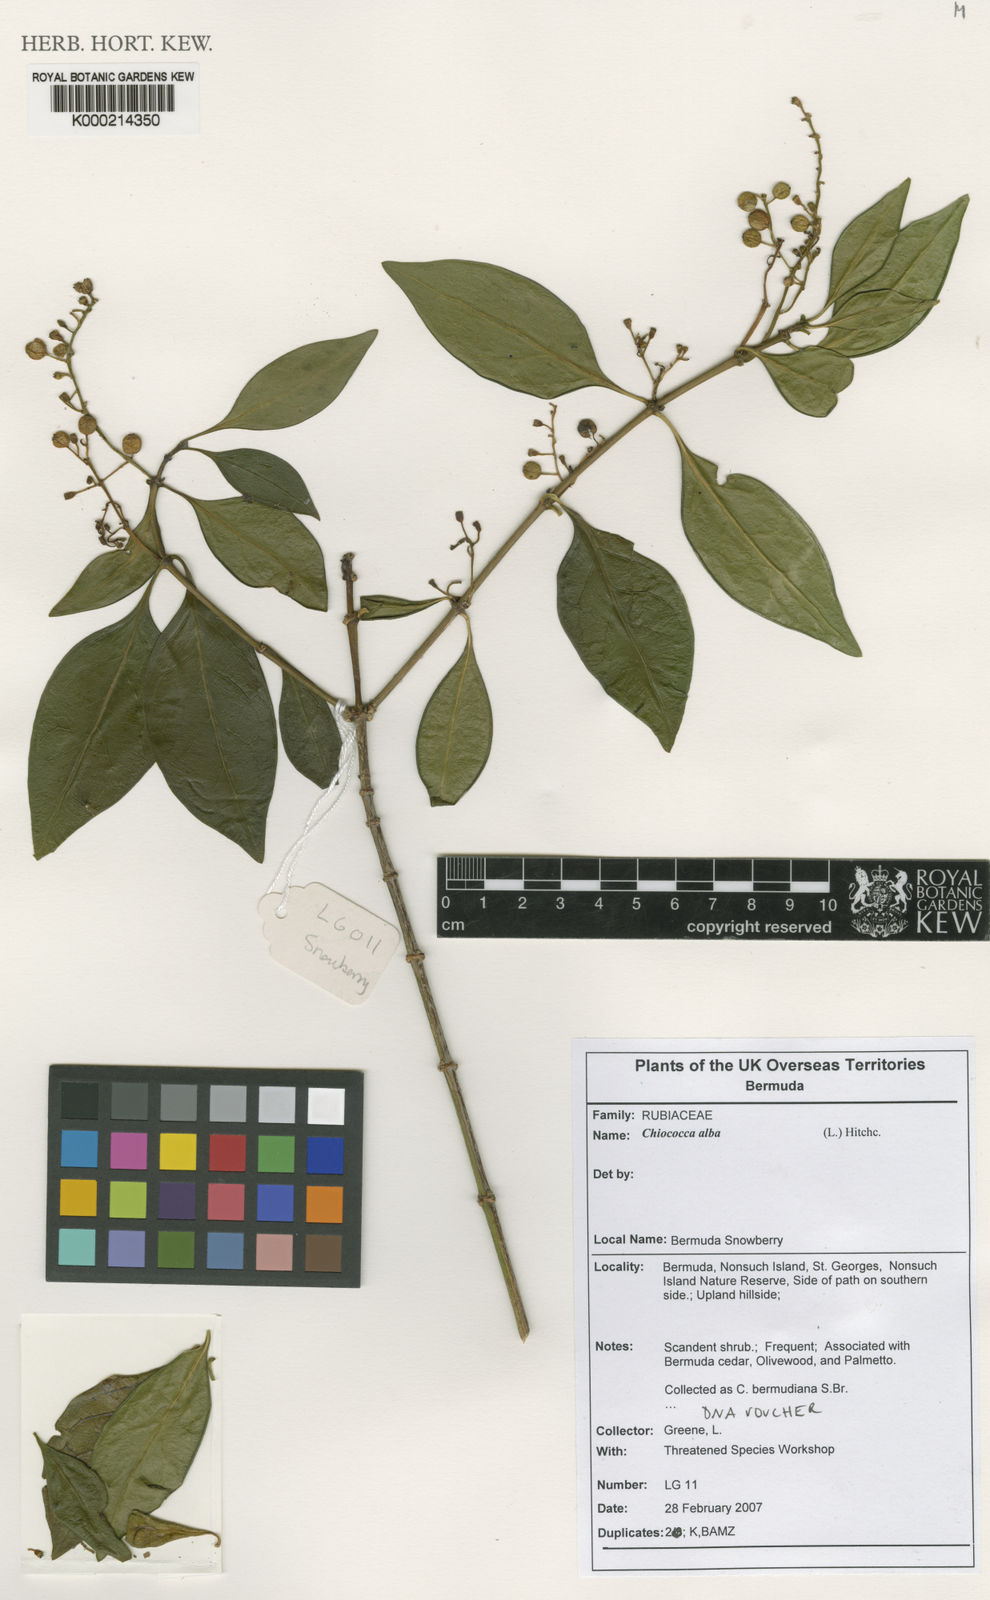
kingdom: Plantae
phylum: Tracheophyta
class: Magnoliopsida
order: Gentianales
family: Rubiaceae
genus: Chiococca
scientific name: Chiococca alba
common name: Snowberry
